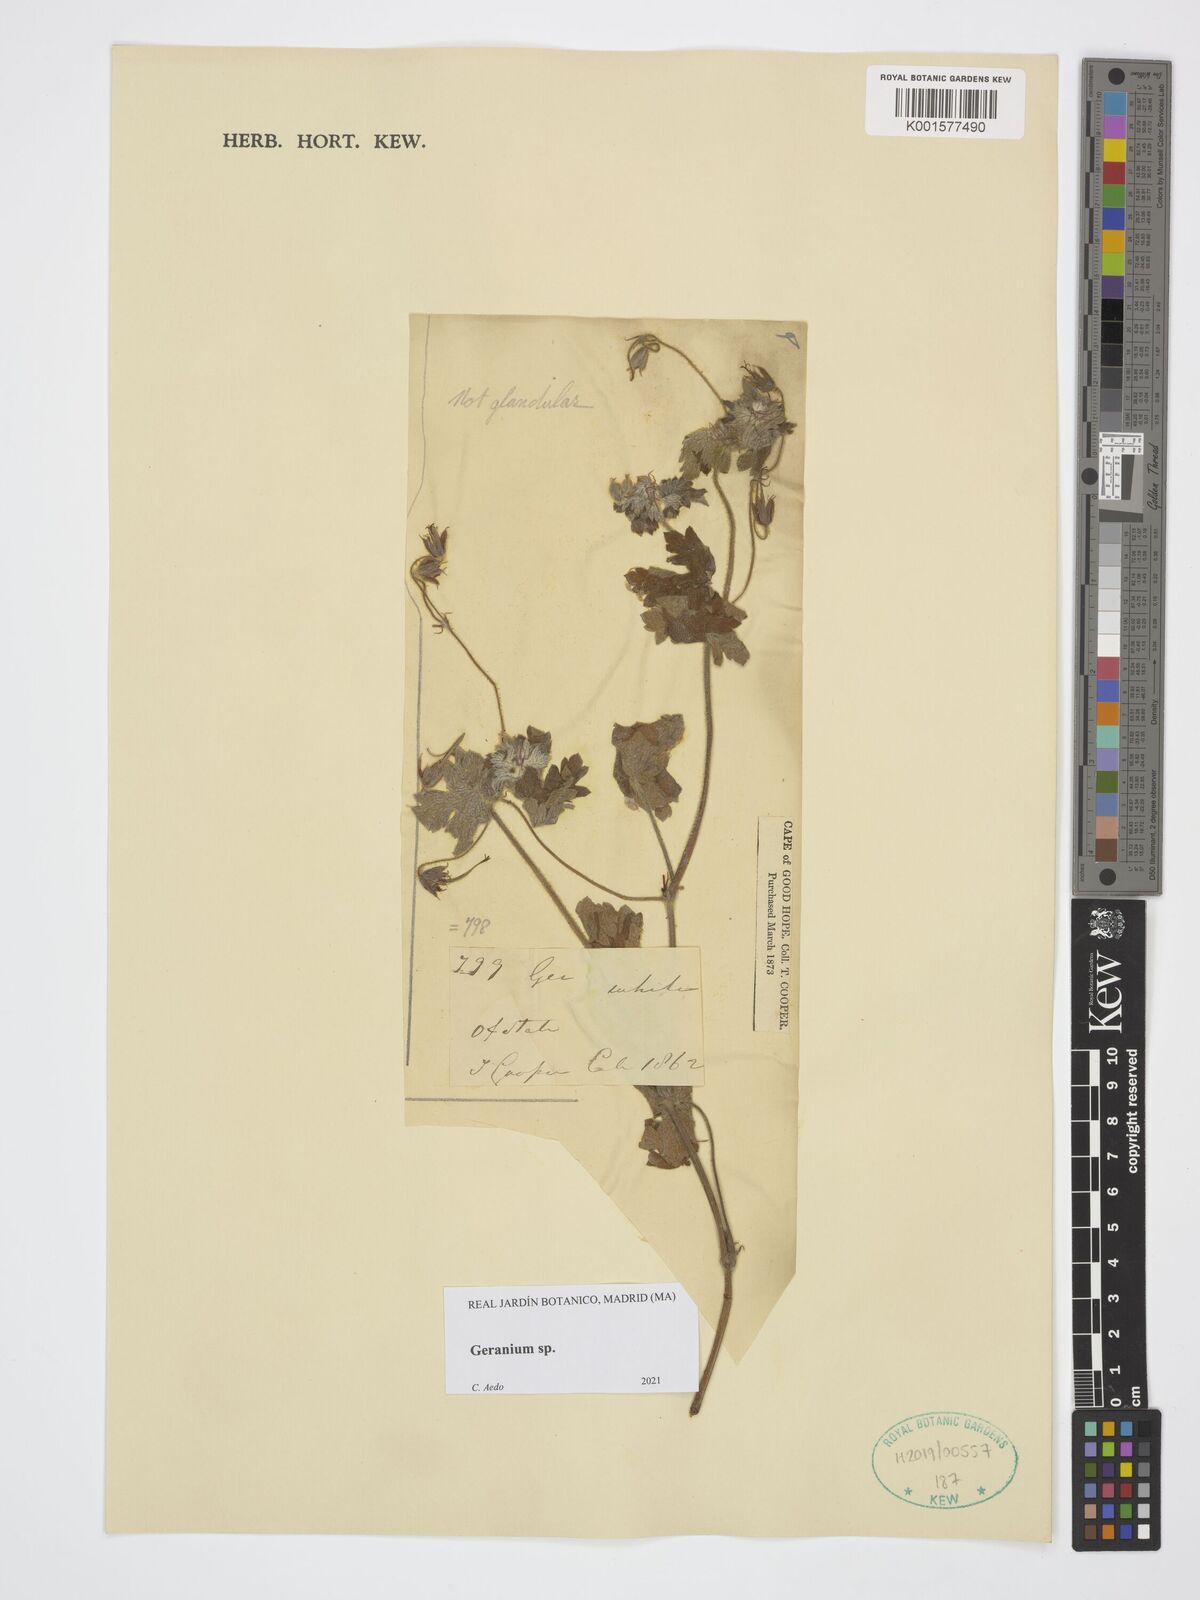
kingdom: Plantae
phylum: Tracheophyta
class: Magnoliopsida
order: Geraniales
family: Geraniaceae
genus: Geranium
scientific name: Geranium
